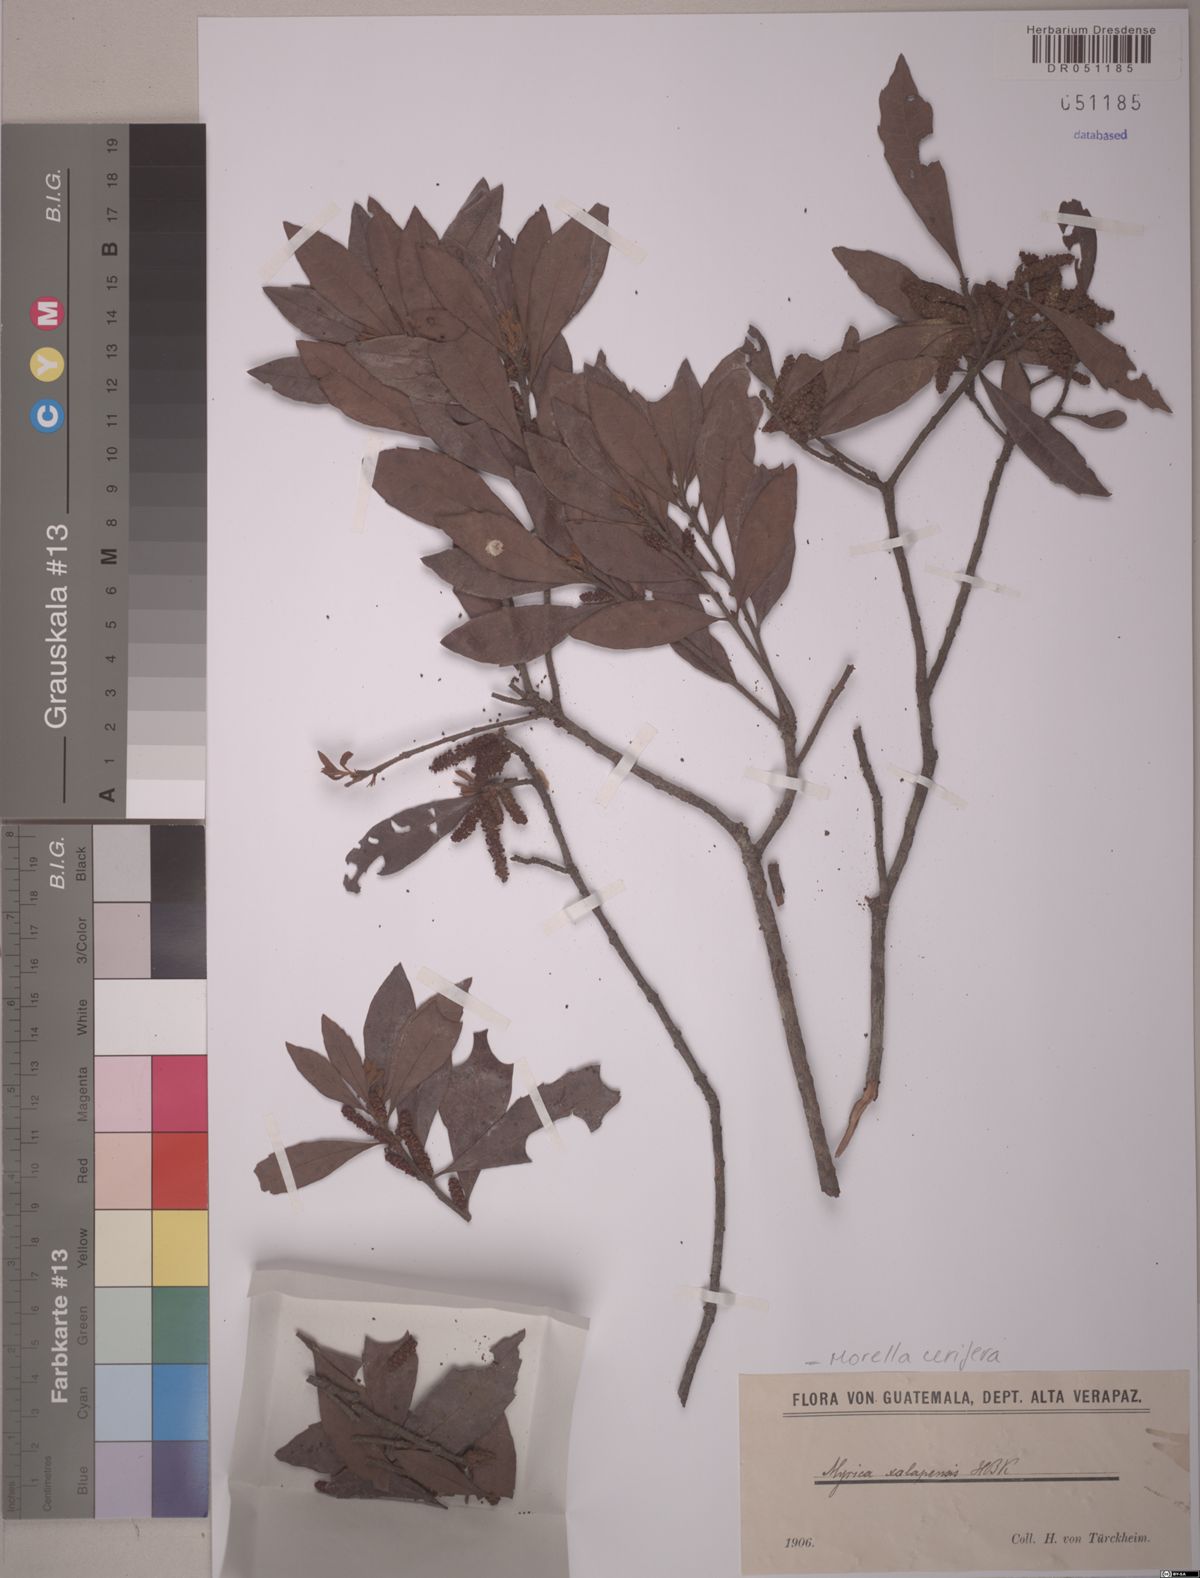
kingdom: Plantae
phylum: Tracheophyta
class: Magnoliopsida
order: Fagales
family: Myricaceae
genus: Morella
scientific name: Morella cerifera
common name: Wax myrtle
